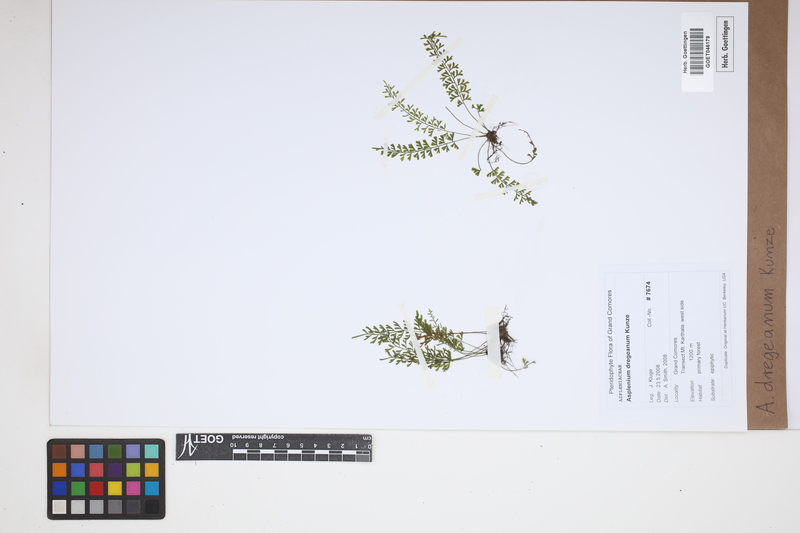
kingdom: Plantae
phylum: Tracheophyta
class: Polypodiopsida
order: Polypodiales
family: Aspleniaceae
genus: Asplenium
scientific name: Asplenium dregeanum
